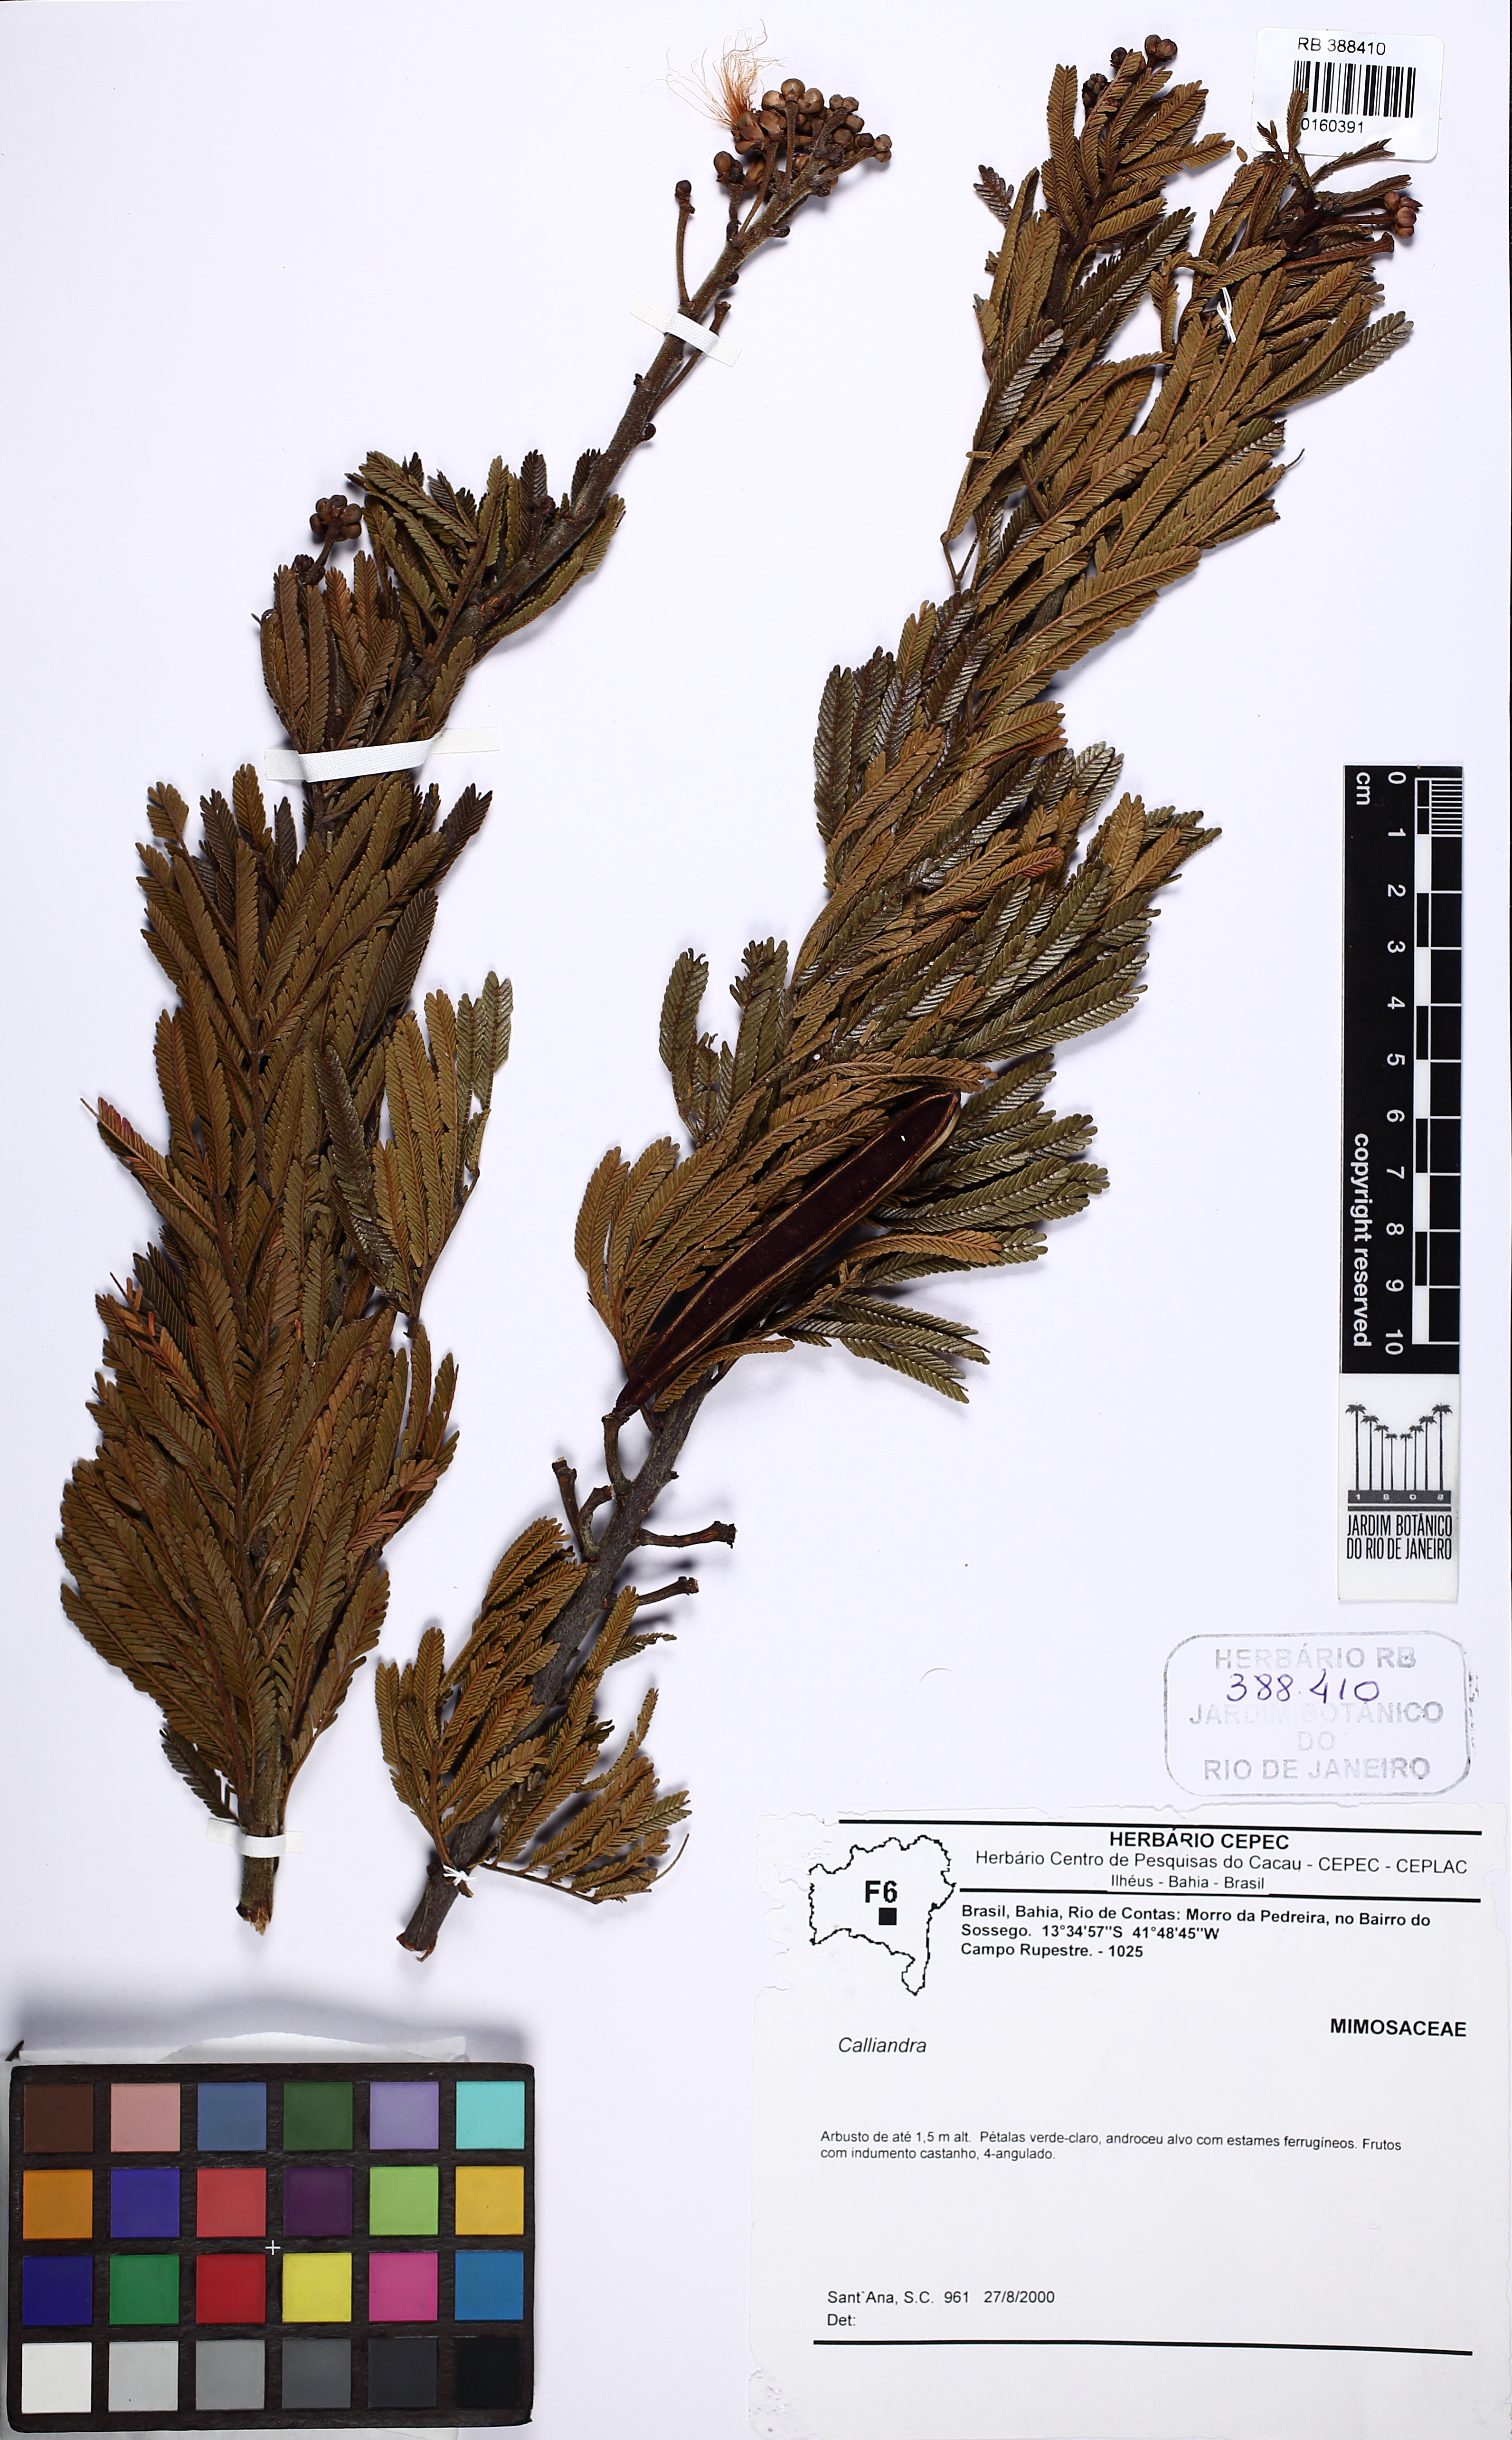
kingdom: Plantae
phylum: Tracheophyta
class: Magnoliopsida
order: Fabales
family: Fabaceae
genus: Calliandra
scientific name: Calliandra
